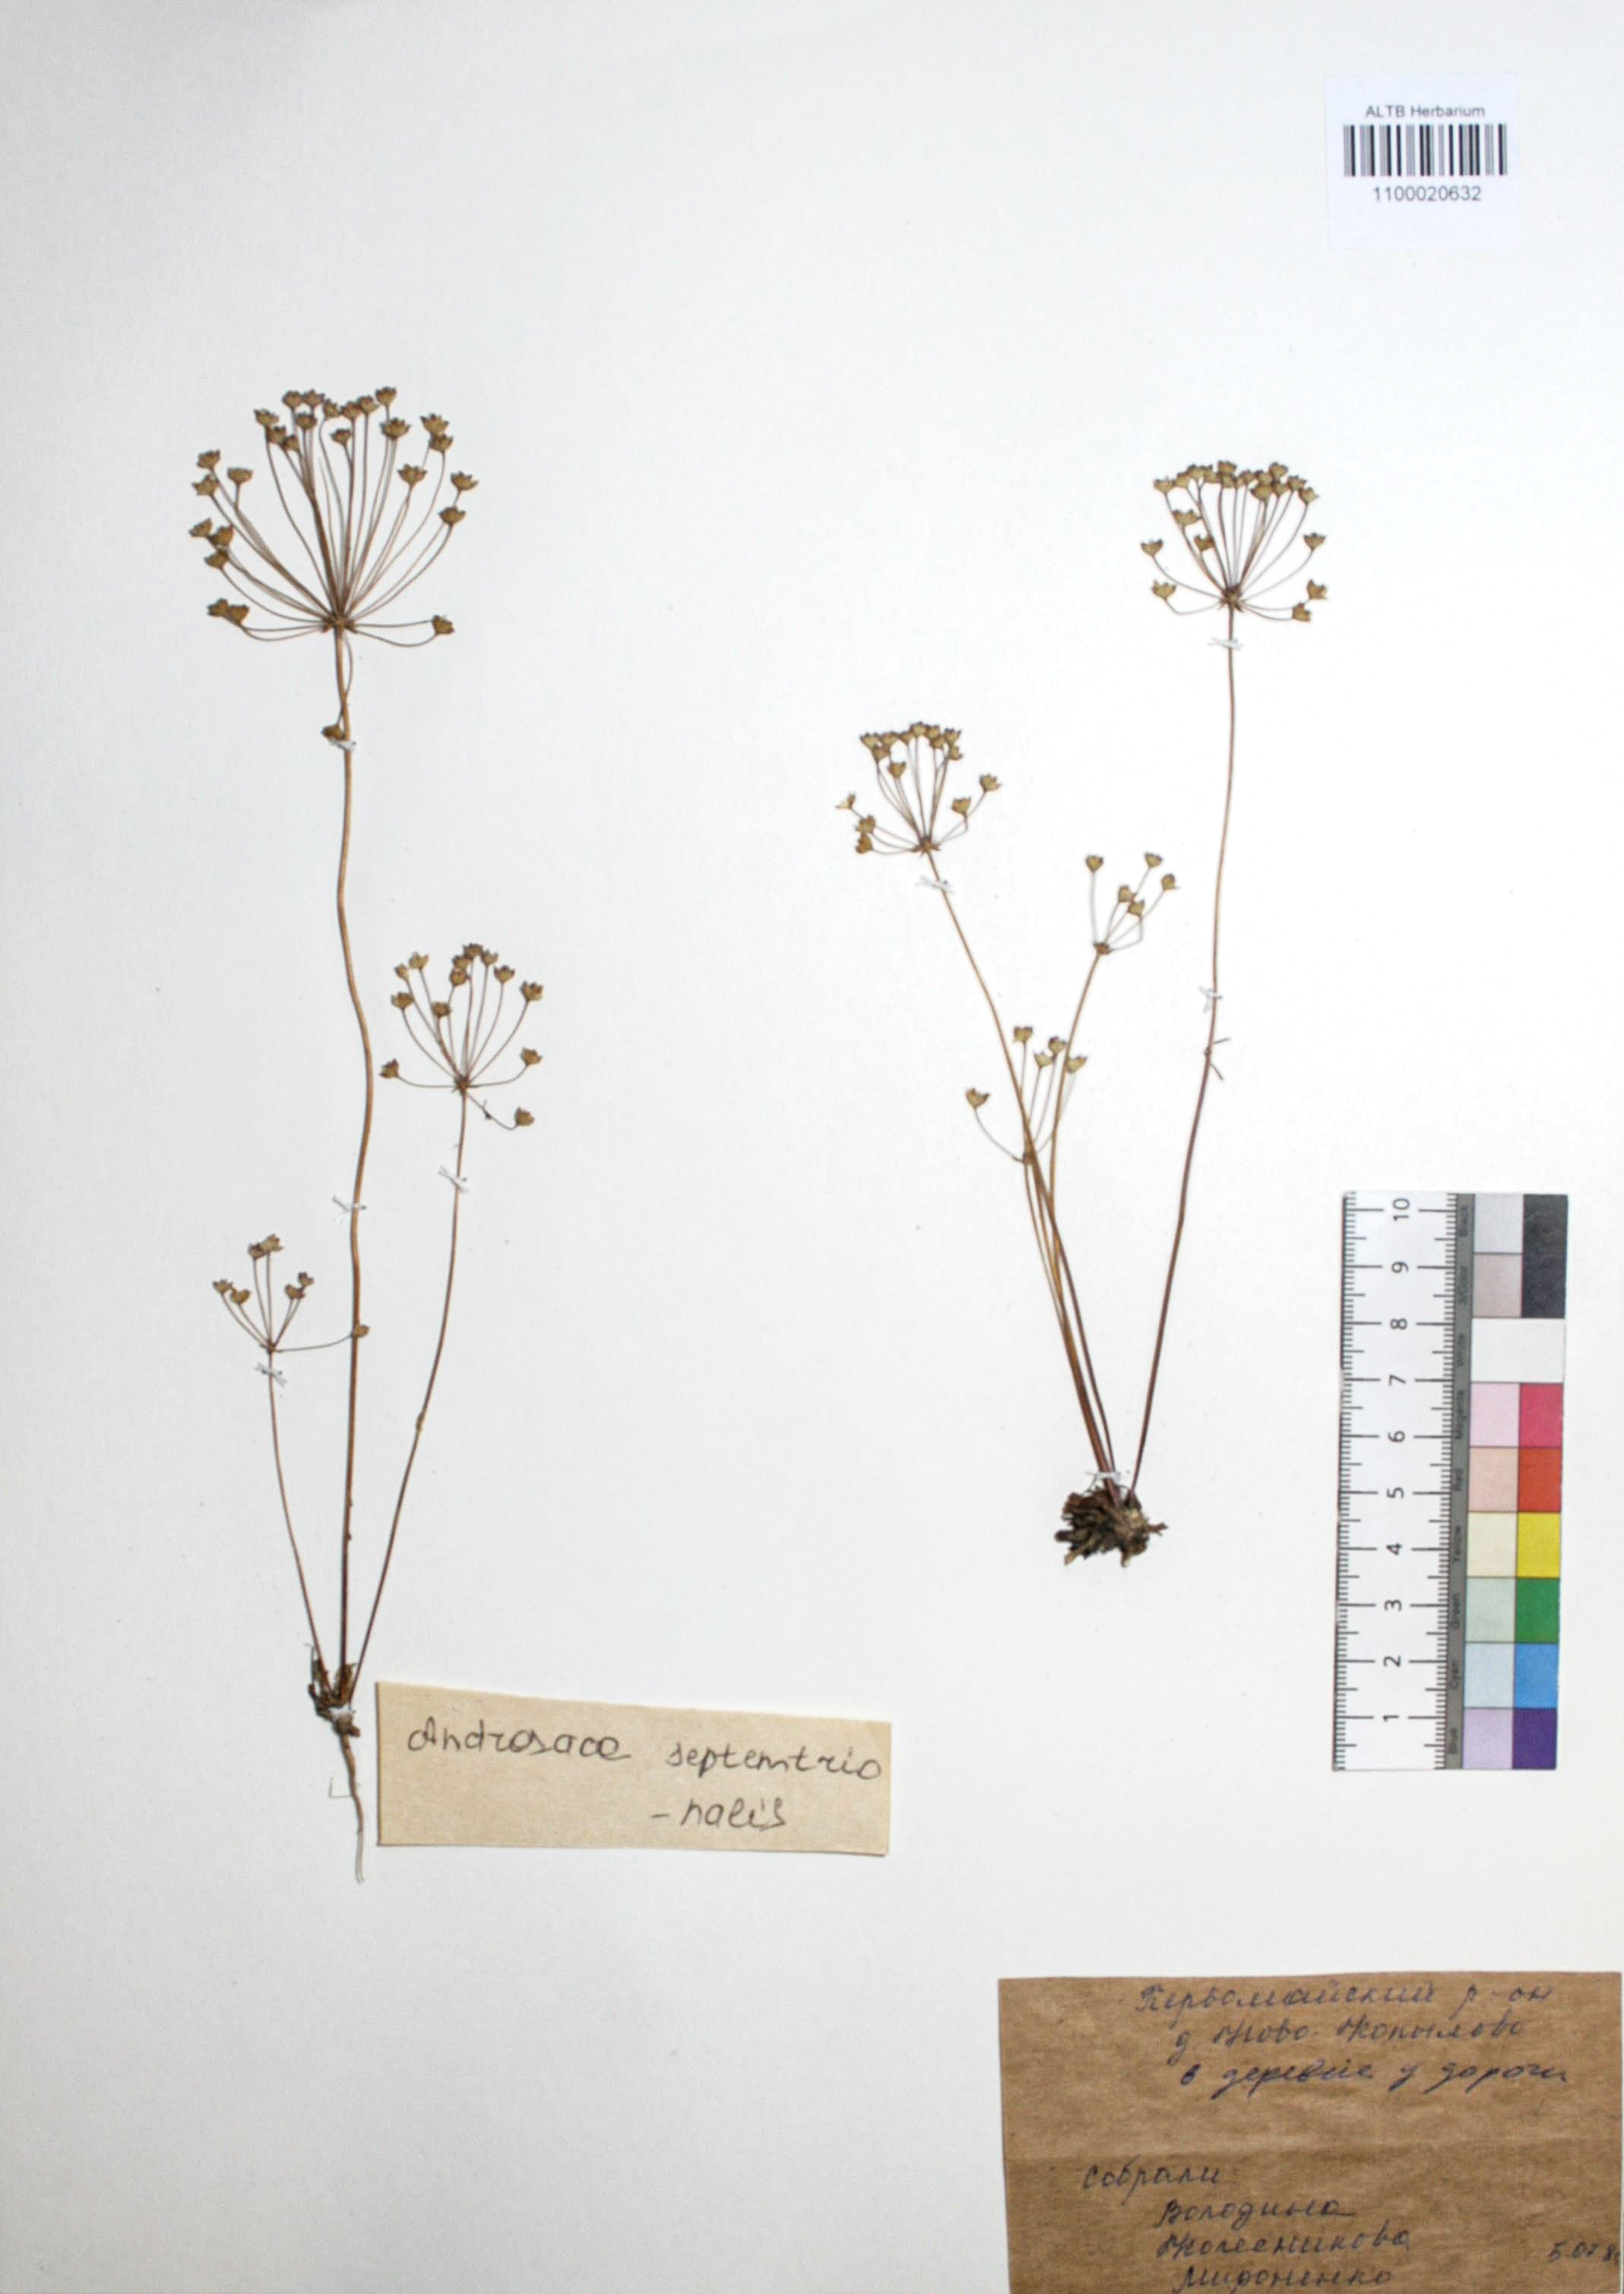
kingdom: Plantae
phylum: Tracheophyta
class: Magnoliopsida
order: Ericales
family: Primulaceae
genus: Androsace
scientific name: Androsace septentrionalis
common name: Hairy northern fairy-candelabra
